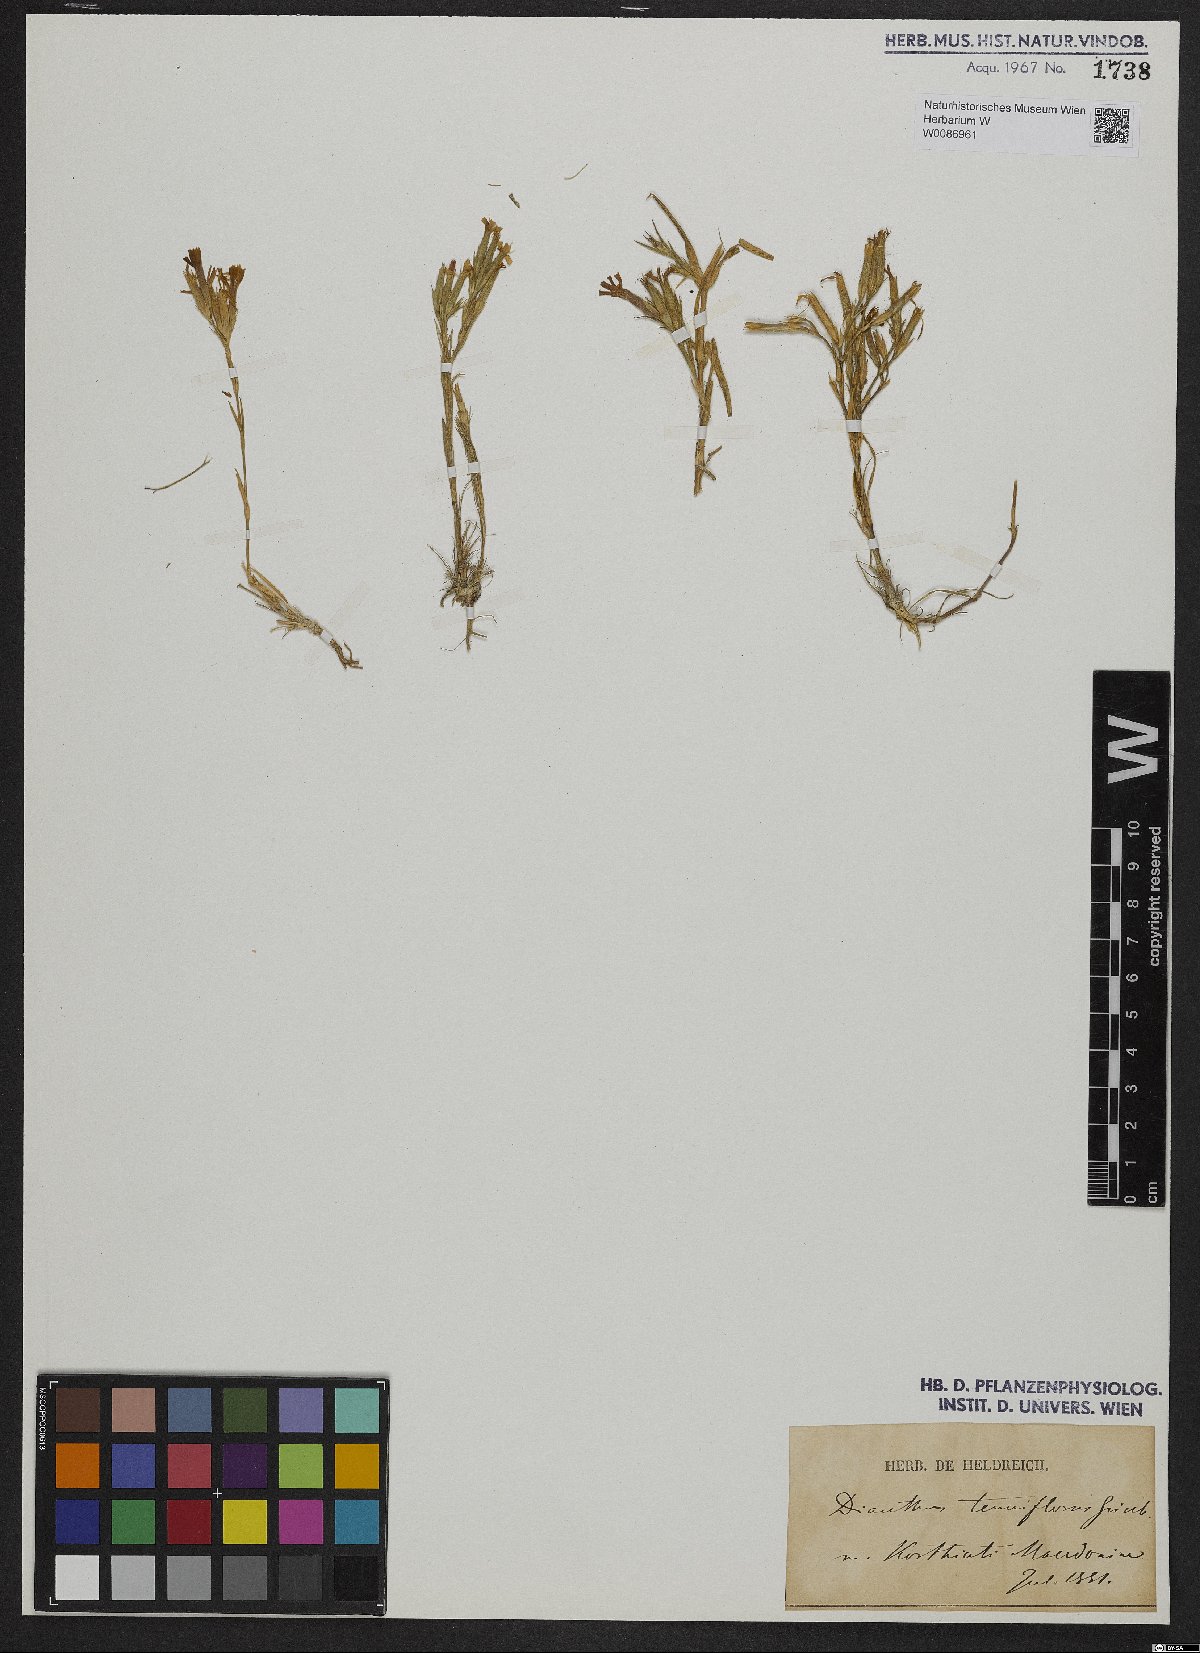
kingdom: Plantae
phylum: Tracheophyta
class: Magnoliopsida
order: Caryophyllales
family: Caryophyllaceae
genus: Dianthus
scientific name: Dianthus tenuiflorus
